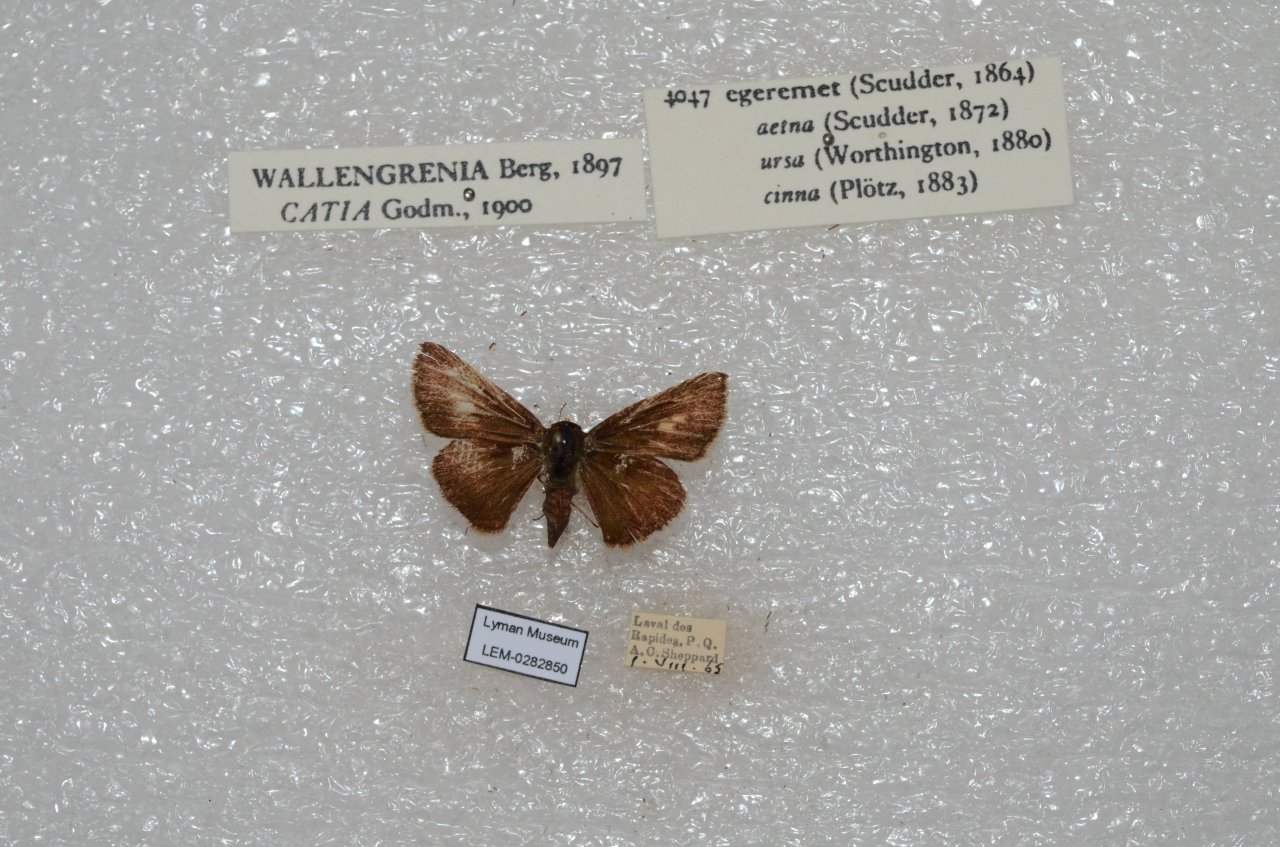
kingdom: Animalia
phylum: Arthropoda
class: Insecta
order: Lepidoptera
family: Hesperiidae
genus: Polites
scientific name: Polites egeremet
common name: Northern Broken-Dash
